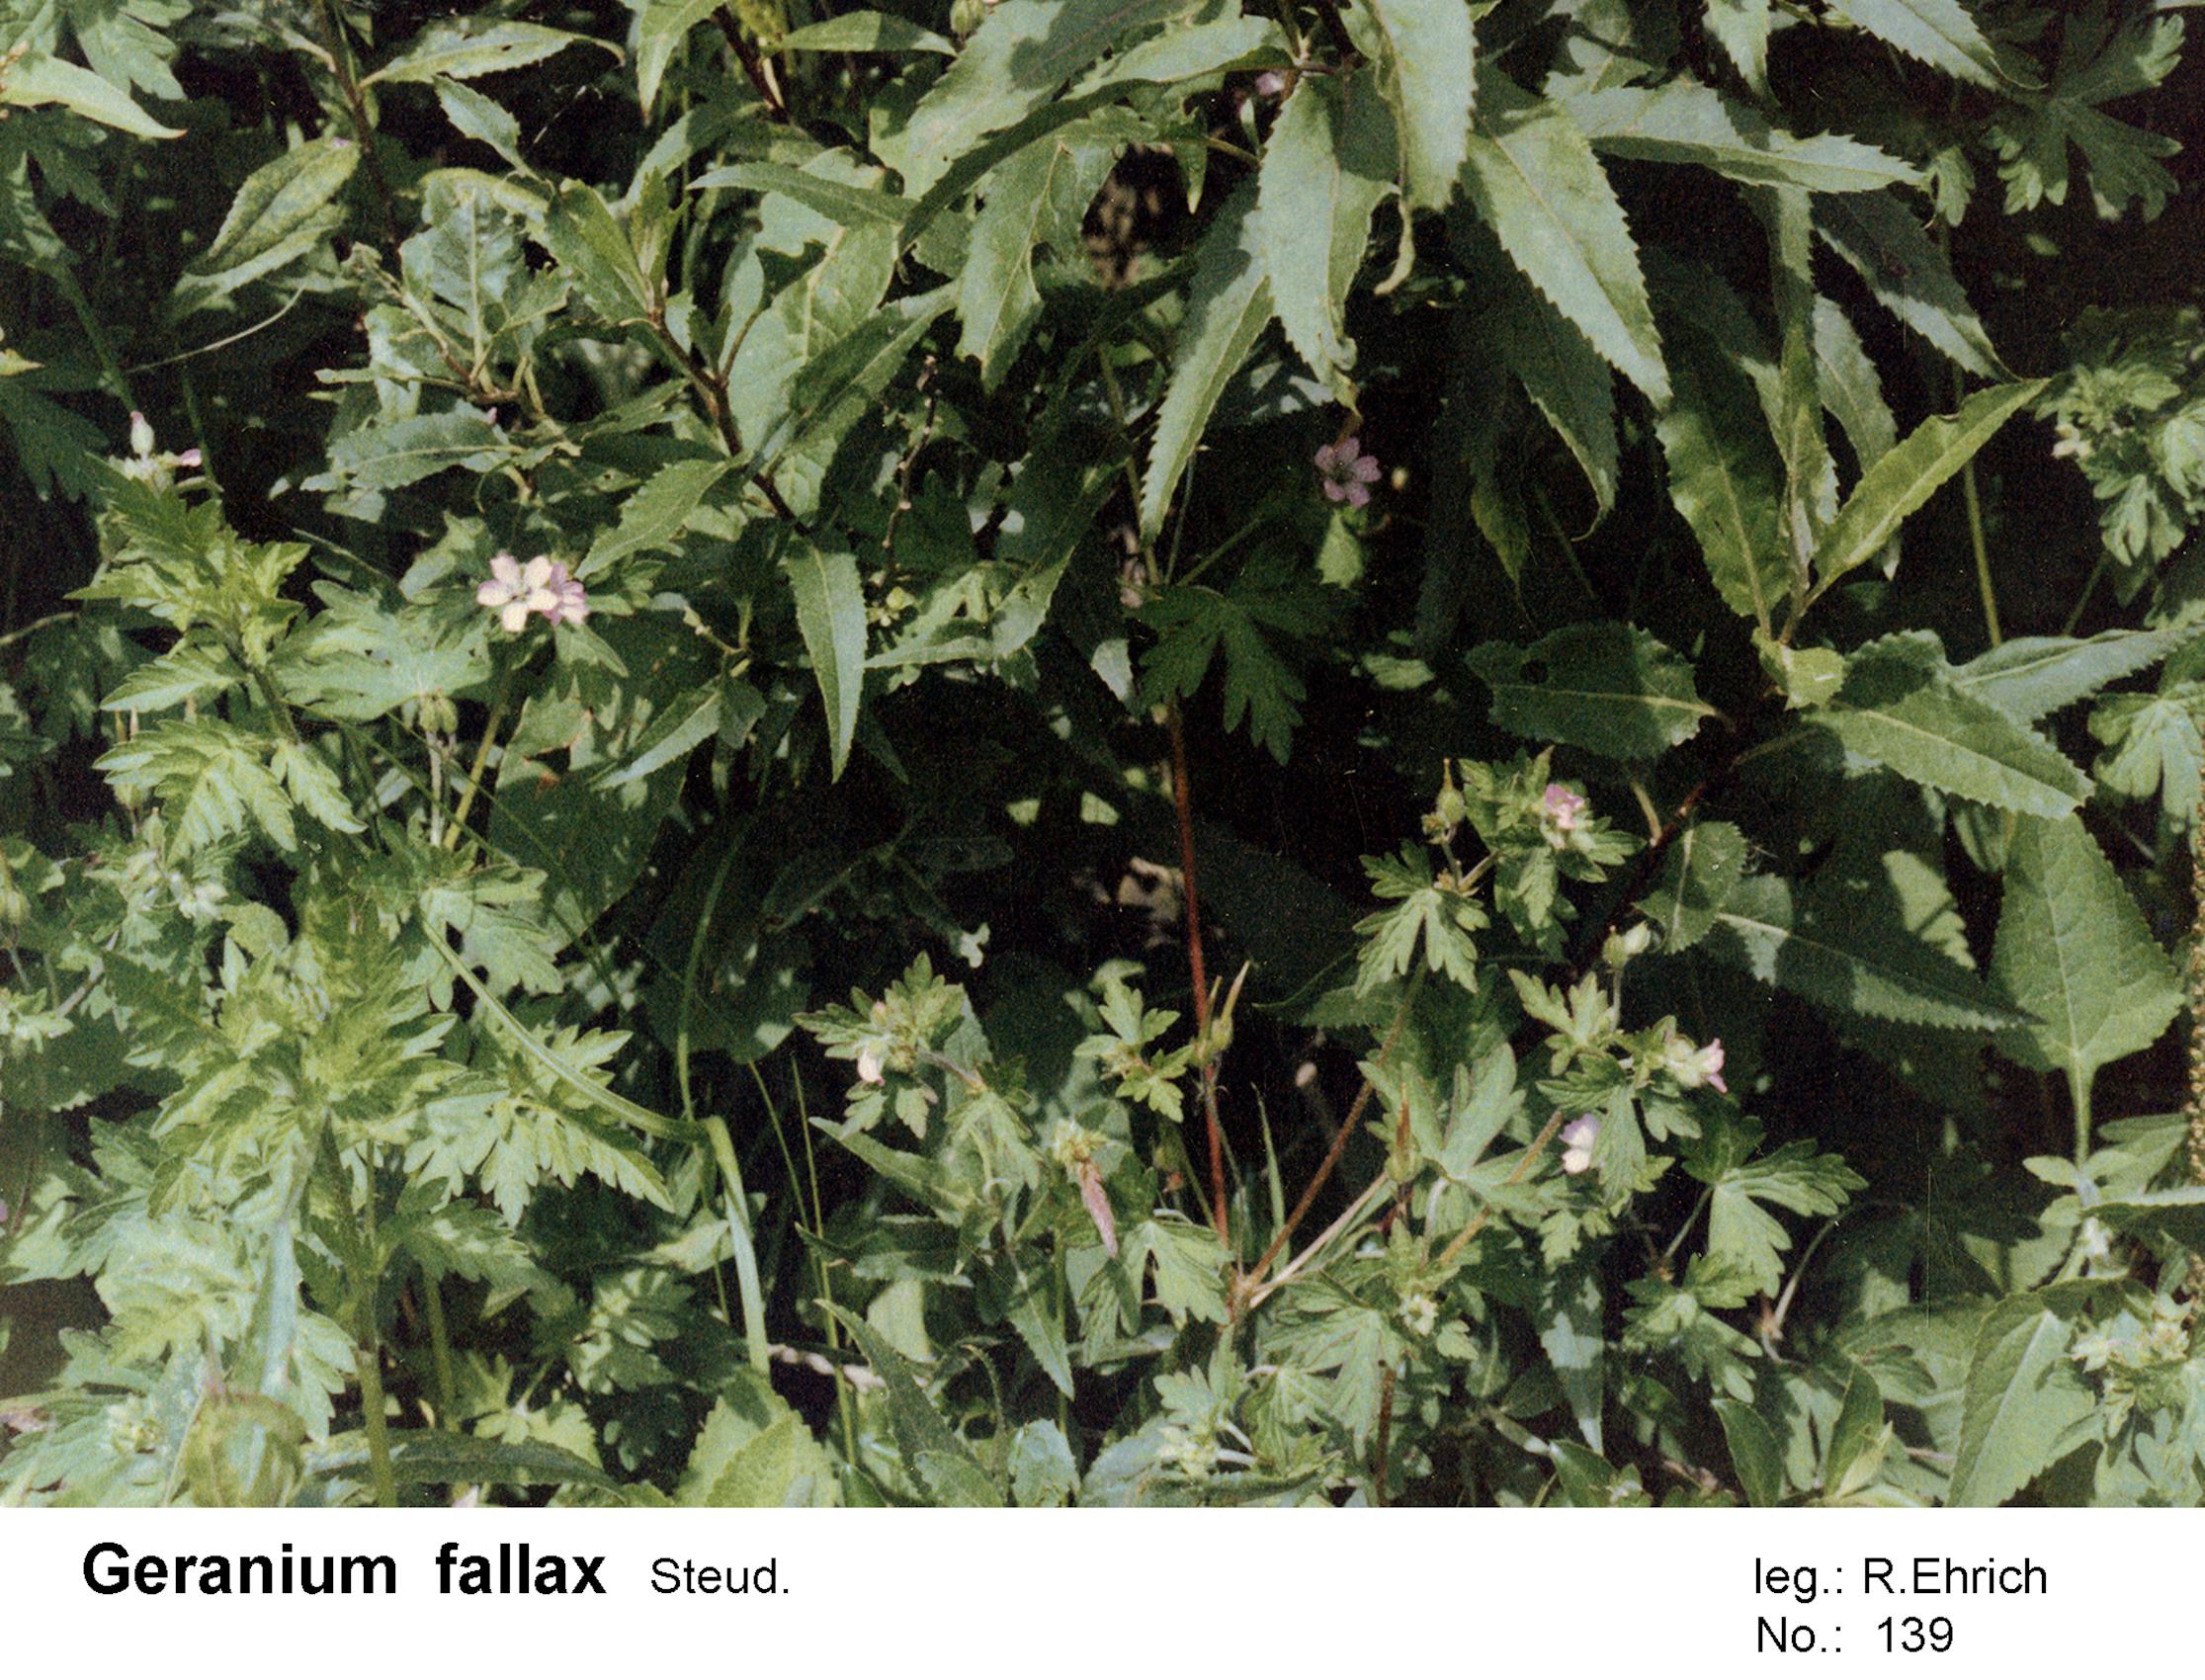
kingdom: Plantae
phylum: Tracheophyta
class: Magnoliopsida
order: Geraniales
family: Geraniaceae
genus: Geranium
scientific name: Geranium fallax
